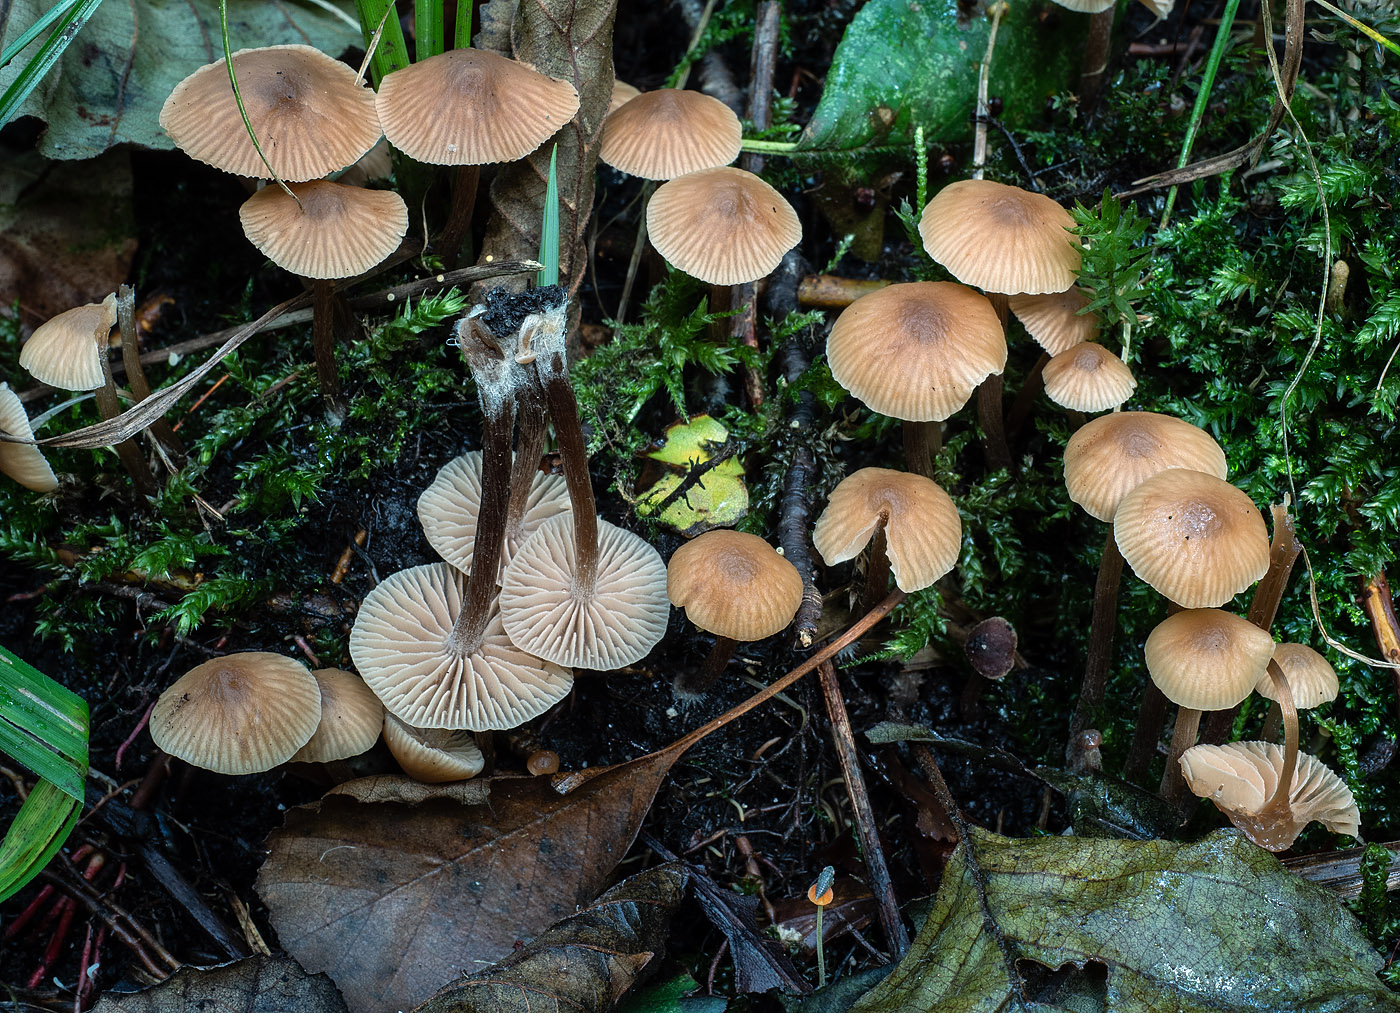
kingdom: Fungi
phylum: Basidiomycota
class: Agaricomycetes
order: Agaricales
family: Hymenogastraceae
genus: Naucoria
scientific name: Naucoria celluloderma
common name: enlig knaphat
